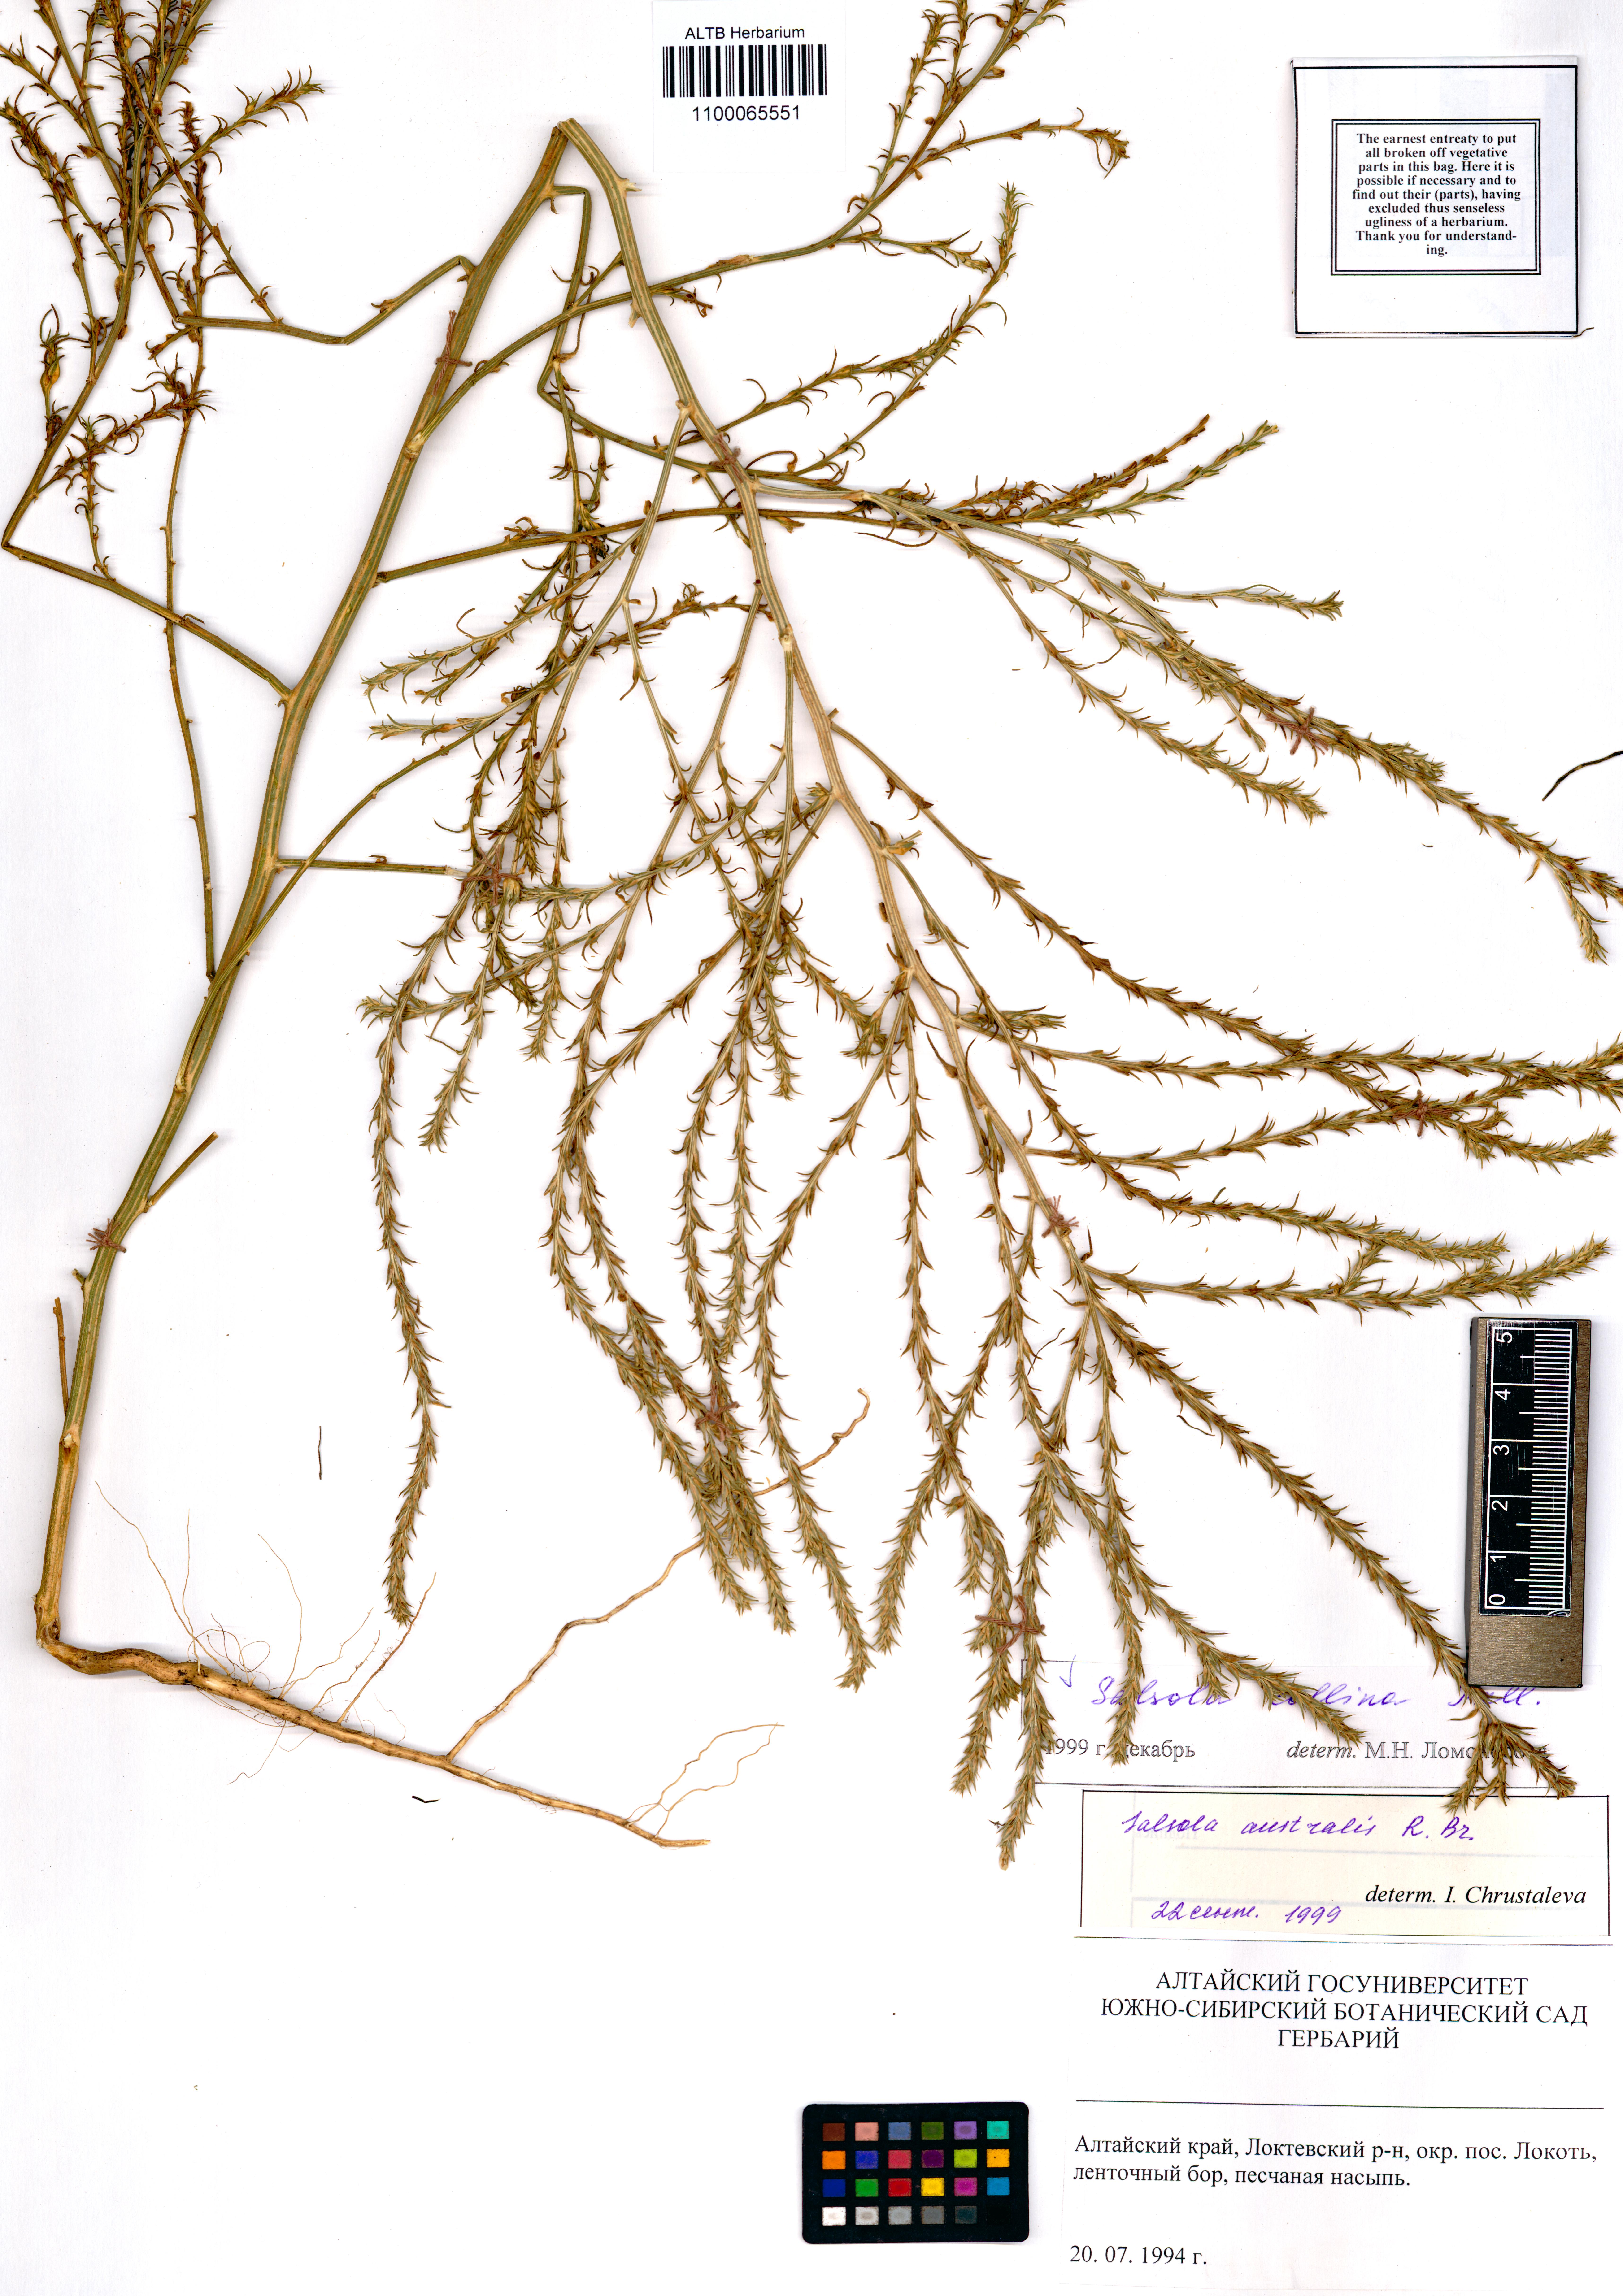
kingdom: Plantae
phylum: Tracheophyta
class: Magnoliopsida
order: Caryophyllales
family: Amaranthaceae
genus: Salsola
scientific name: Salsola collina
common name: Tumbleweed
